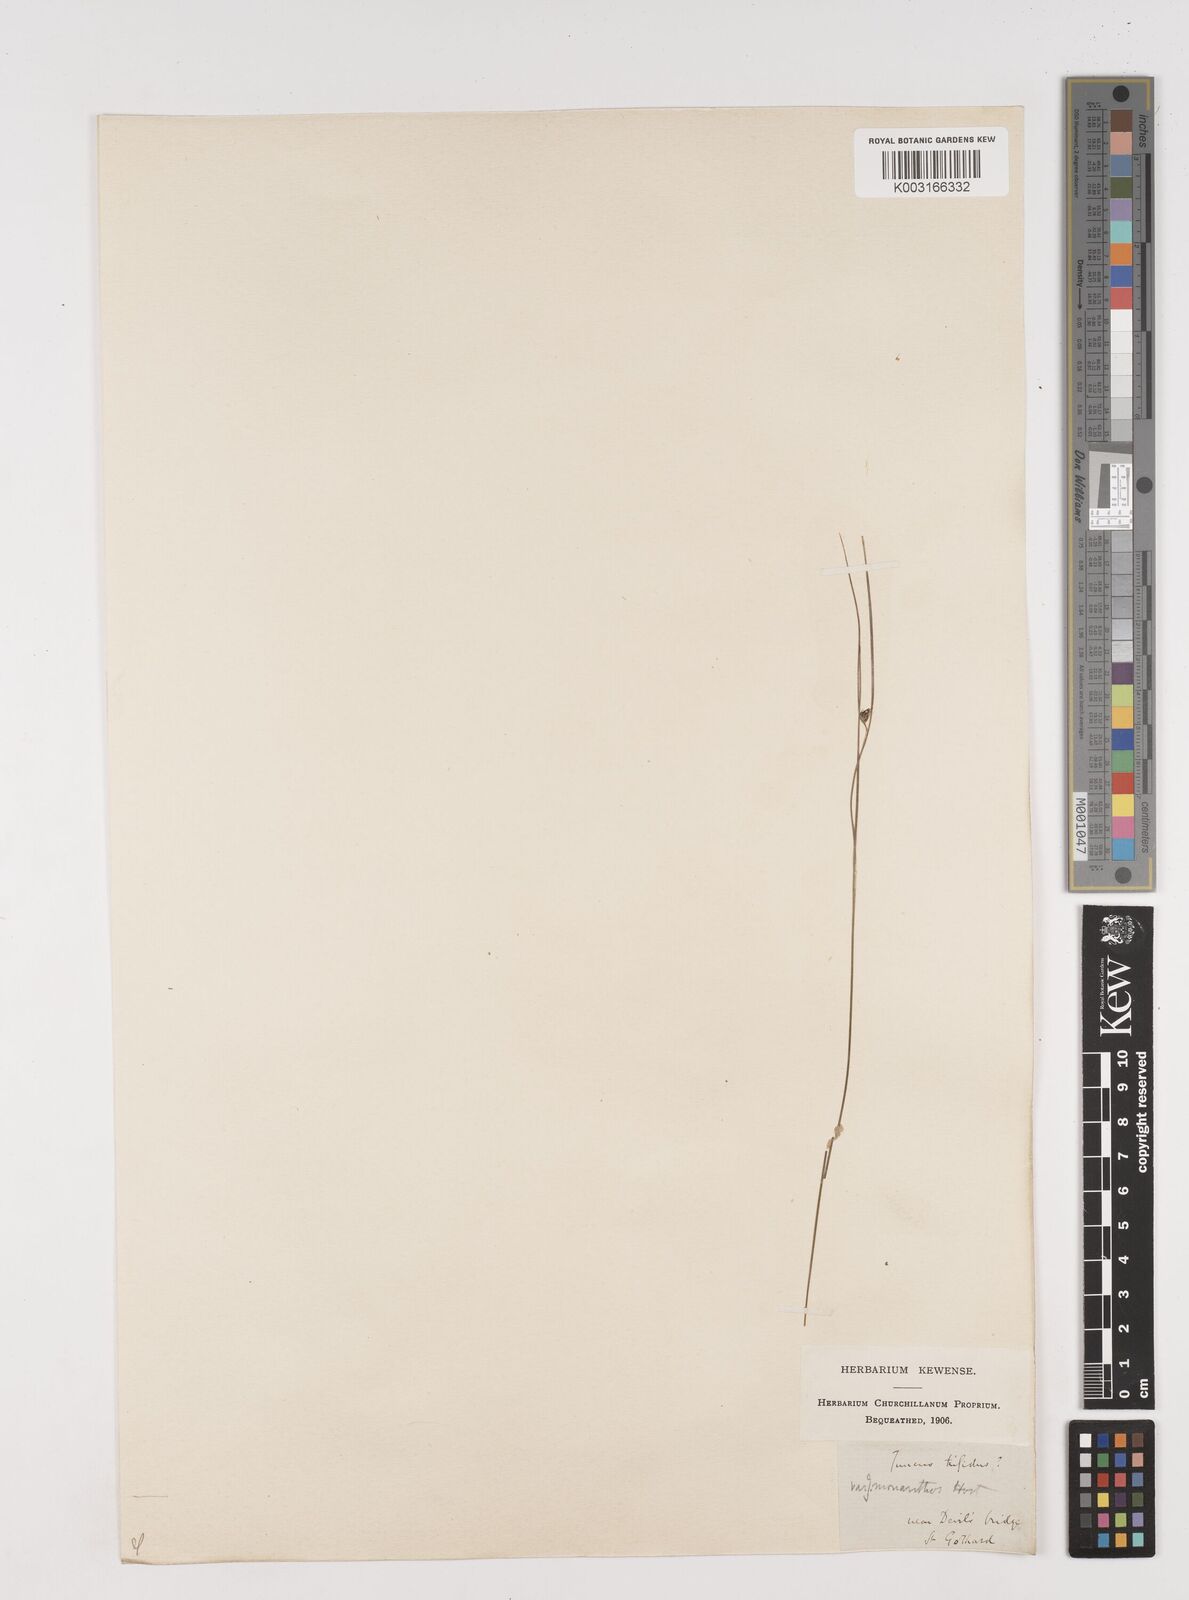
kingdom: Plantae
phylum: Tracheophyta
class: Liliopsida
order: Poales
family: Juncaceae
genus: Oreojuncus
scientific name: Oreojuncus trifidus
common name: Highland rush
